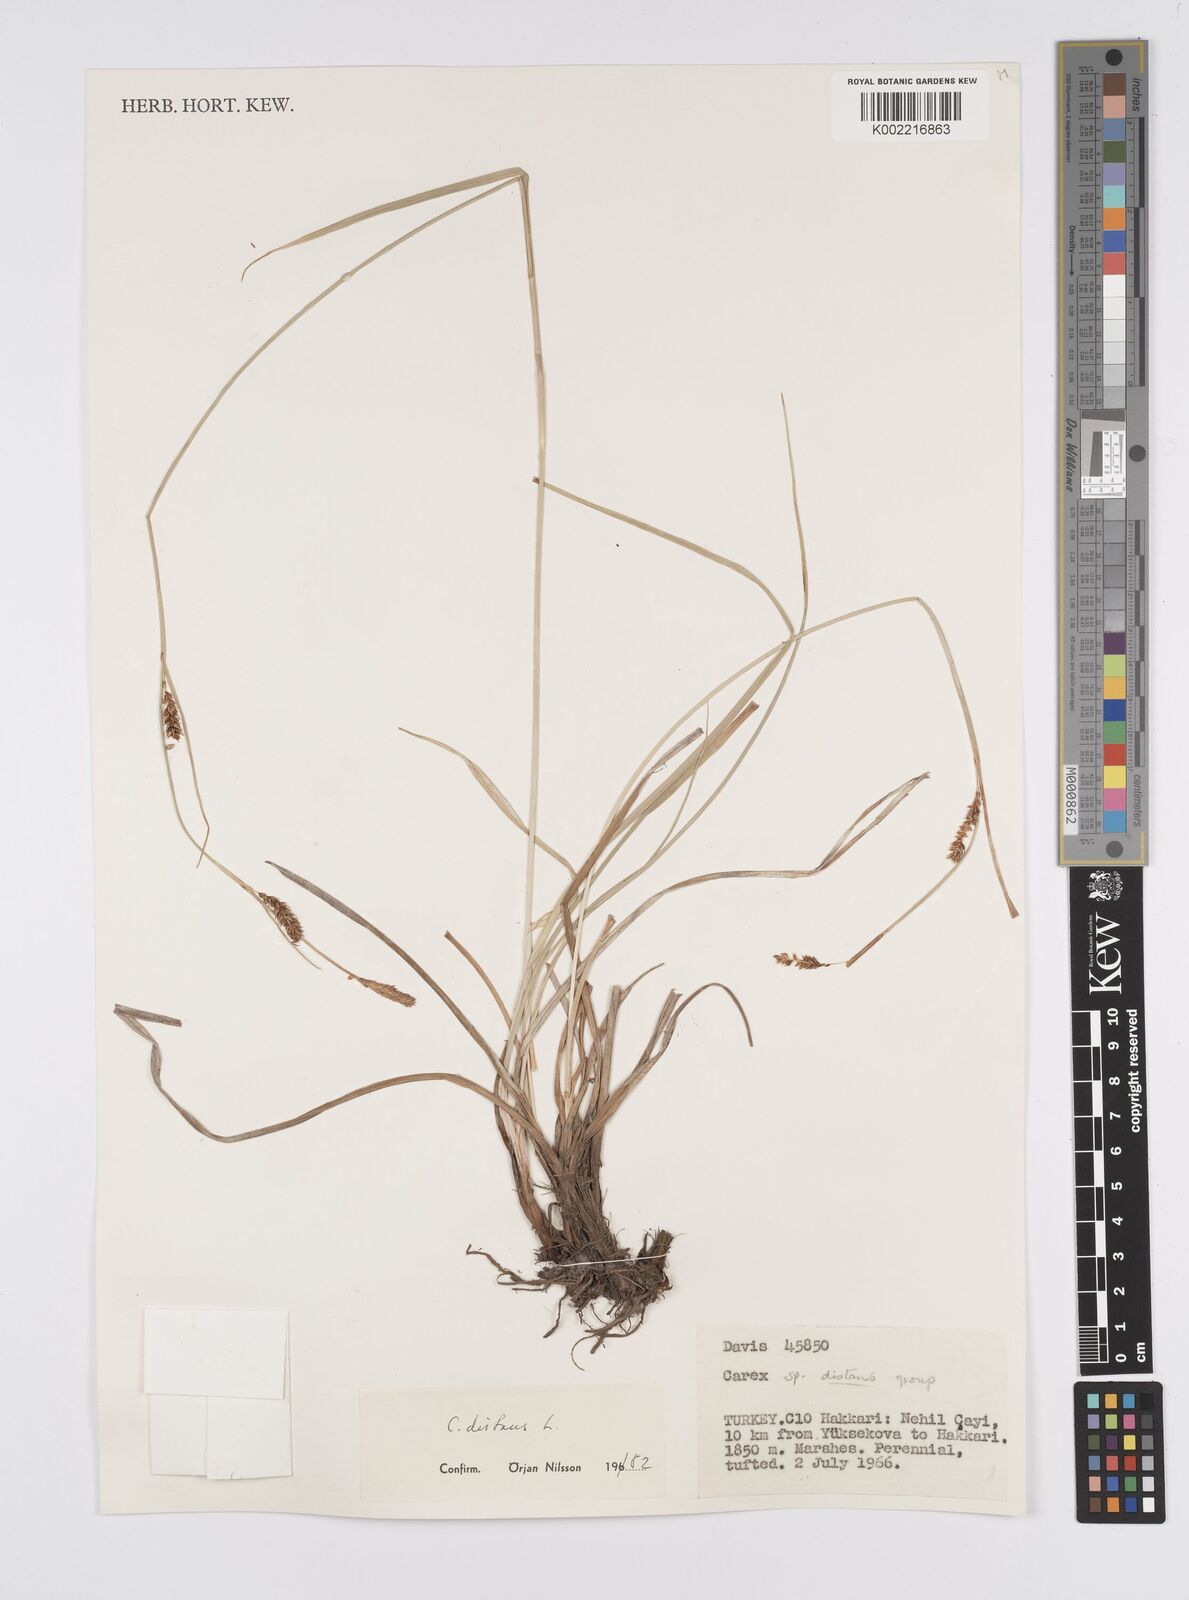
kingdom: Plantae
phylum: Tracheophyta
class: Liliopsida
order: Poales
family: Cyperaceae
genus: Carex
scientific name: Carex distans
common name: Distant sedge
